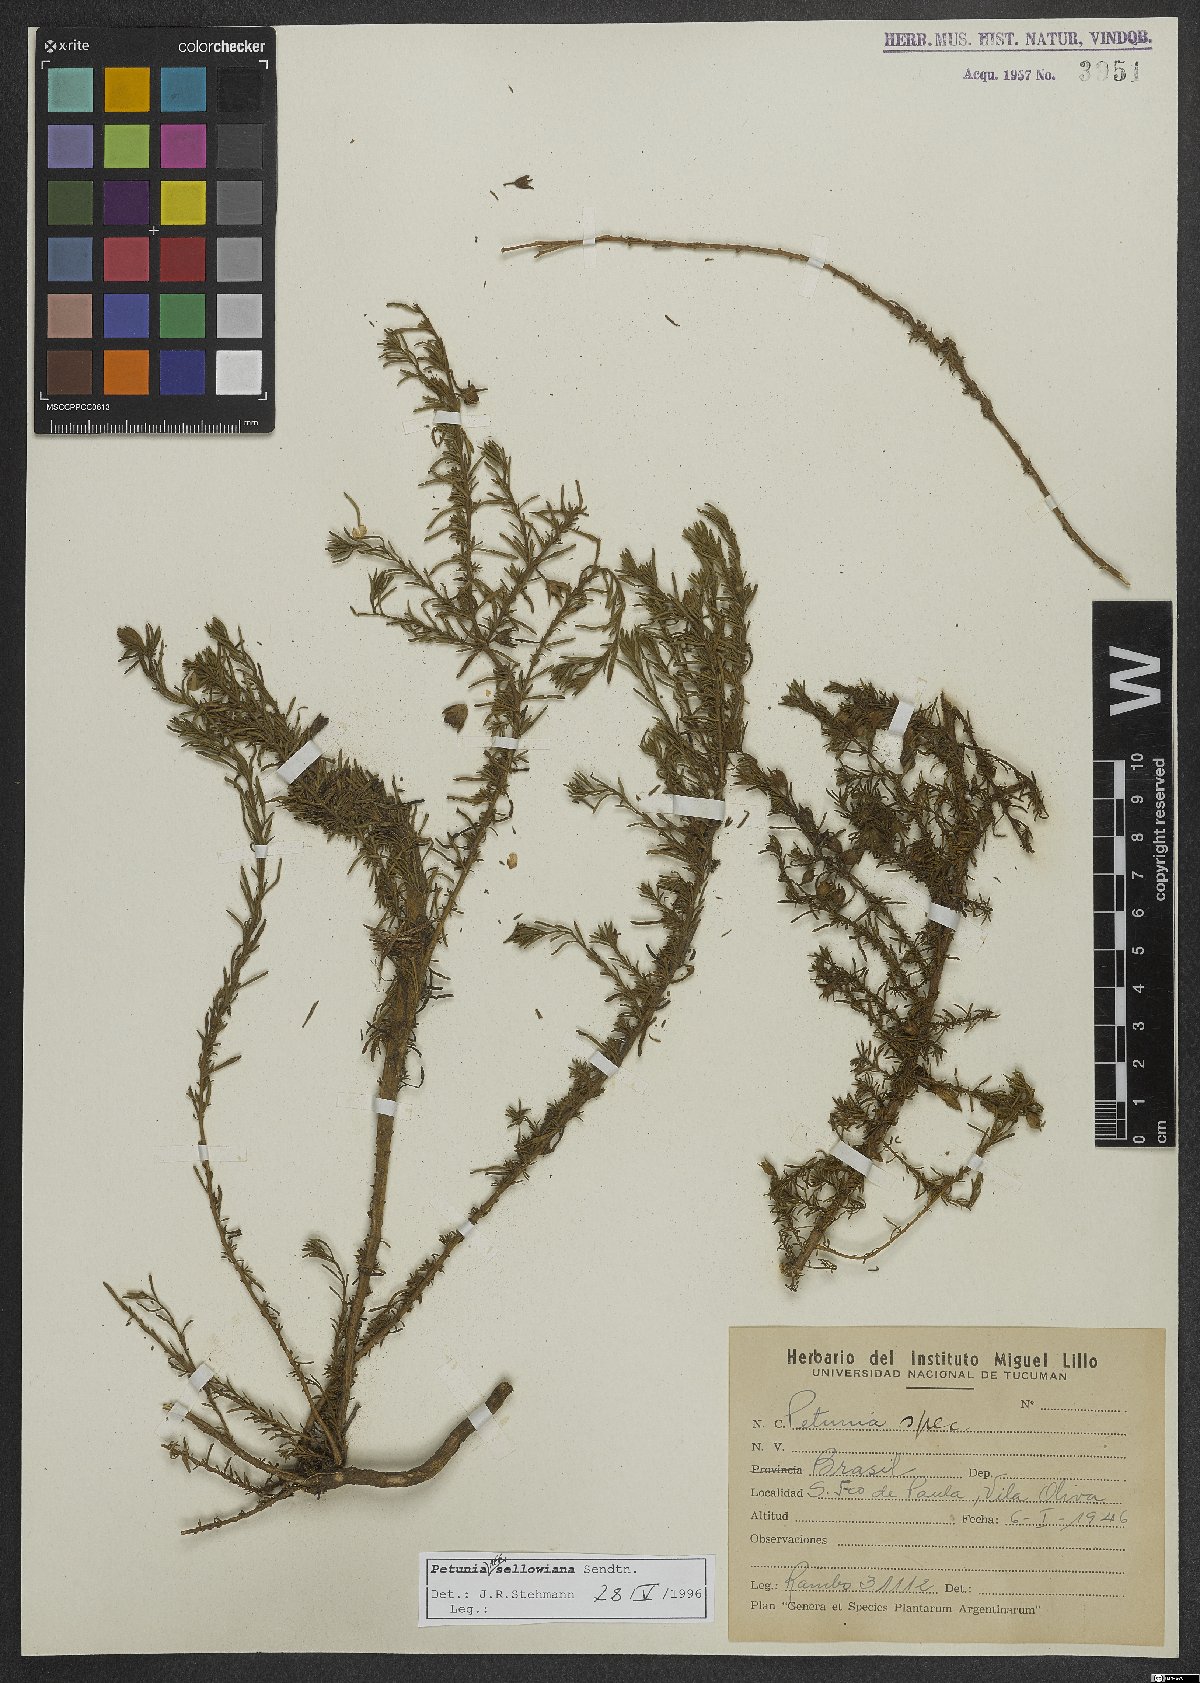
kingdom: Plantae
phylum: Tracheophyta
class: Magnoliopsida
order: Solanales
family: Solanaceae
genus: Calibrachoa
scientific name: Calibrachoa sellowiana
